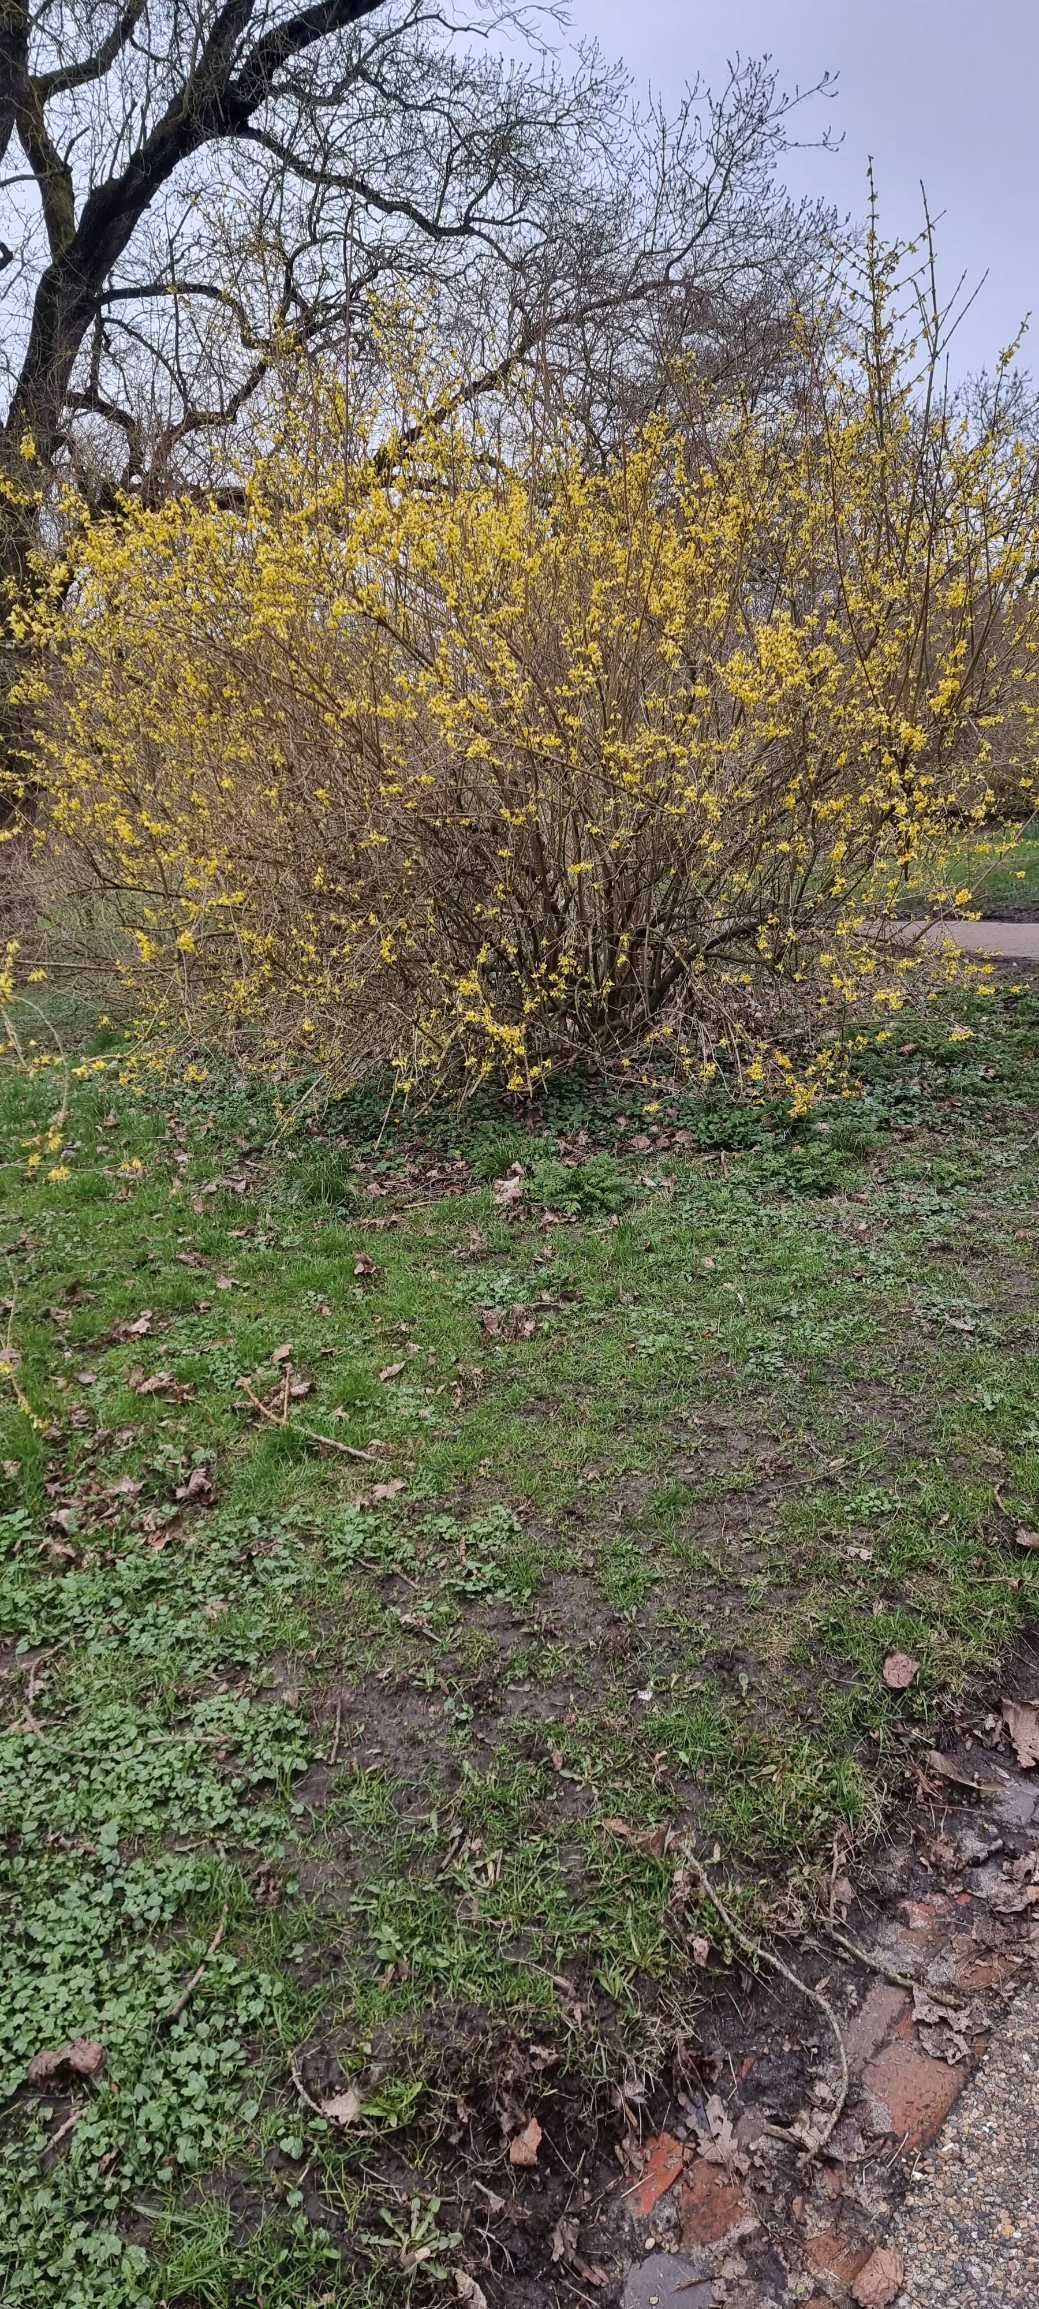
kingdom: Plantae
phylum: Tracheophyta
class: Magnoliopsida
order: Lamiales
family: Oleaceae
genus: Forsythia
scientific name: Forsythia intermedia
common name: Have-forsythia
